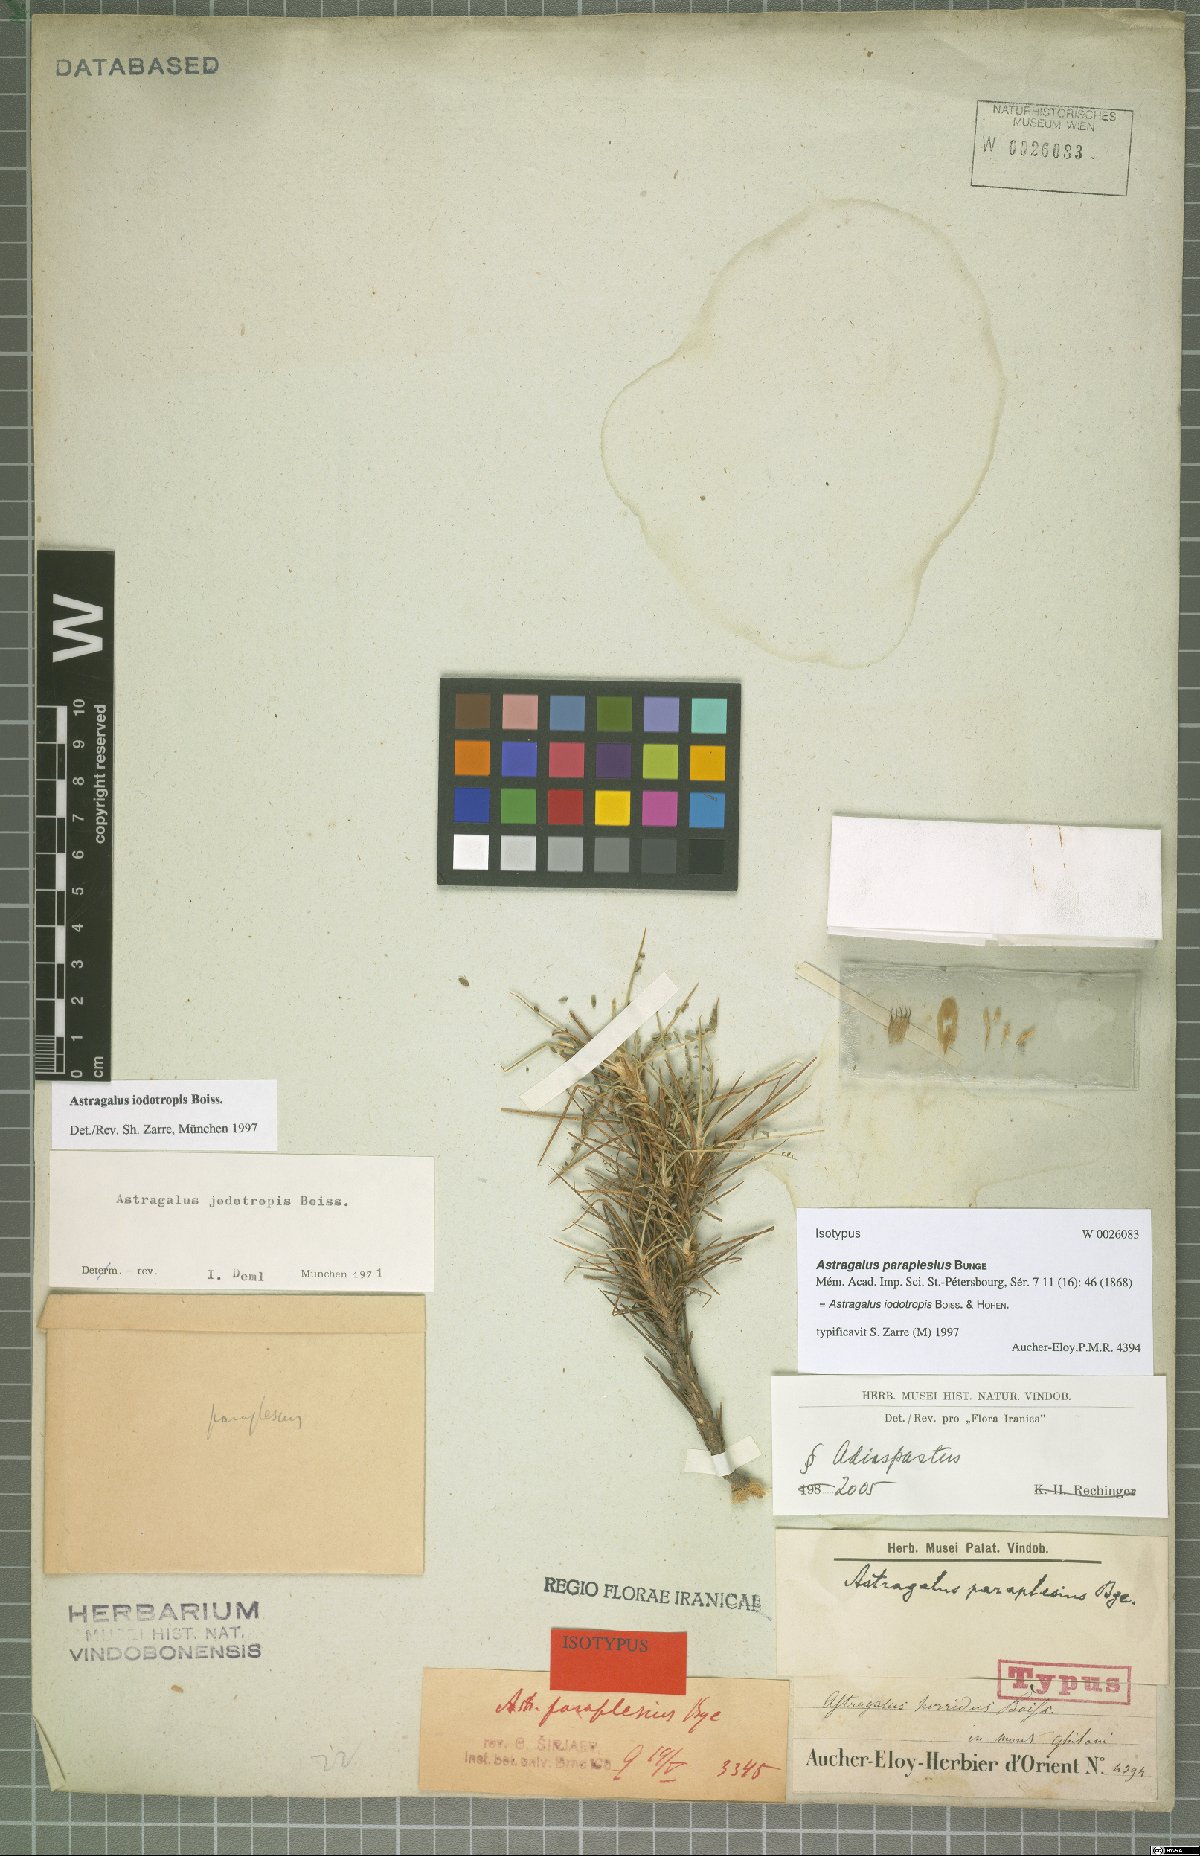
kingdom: Plantae
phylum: Tracheophyta
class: Magnoliopsida
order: Fabales
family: Fabaceae
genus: Astragalus
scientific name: Astragalus iodotropis
